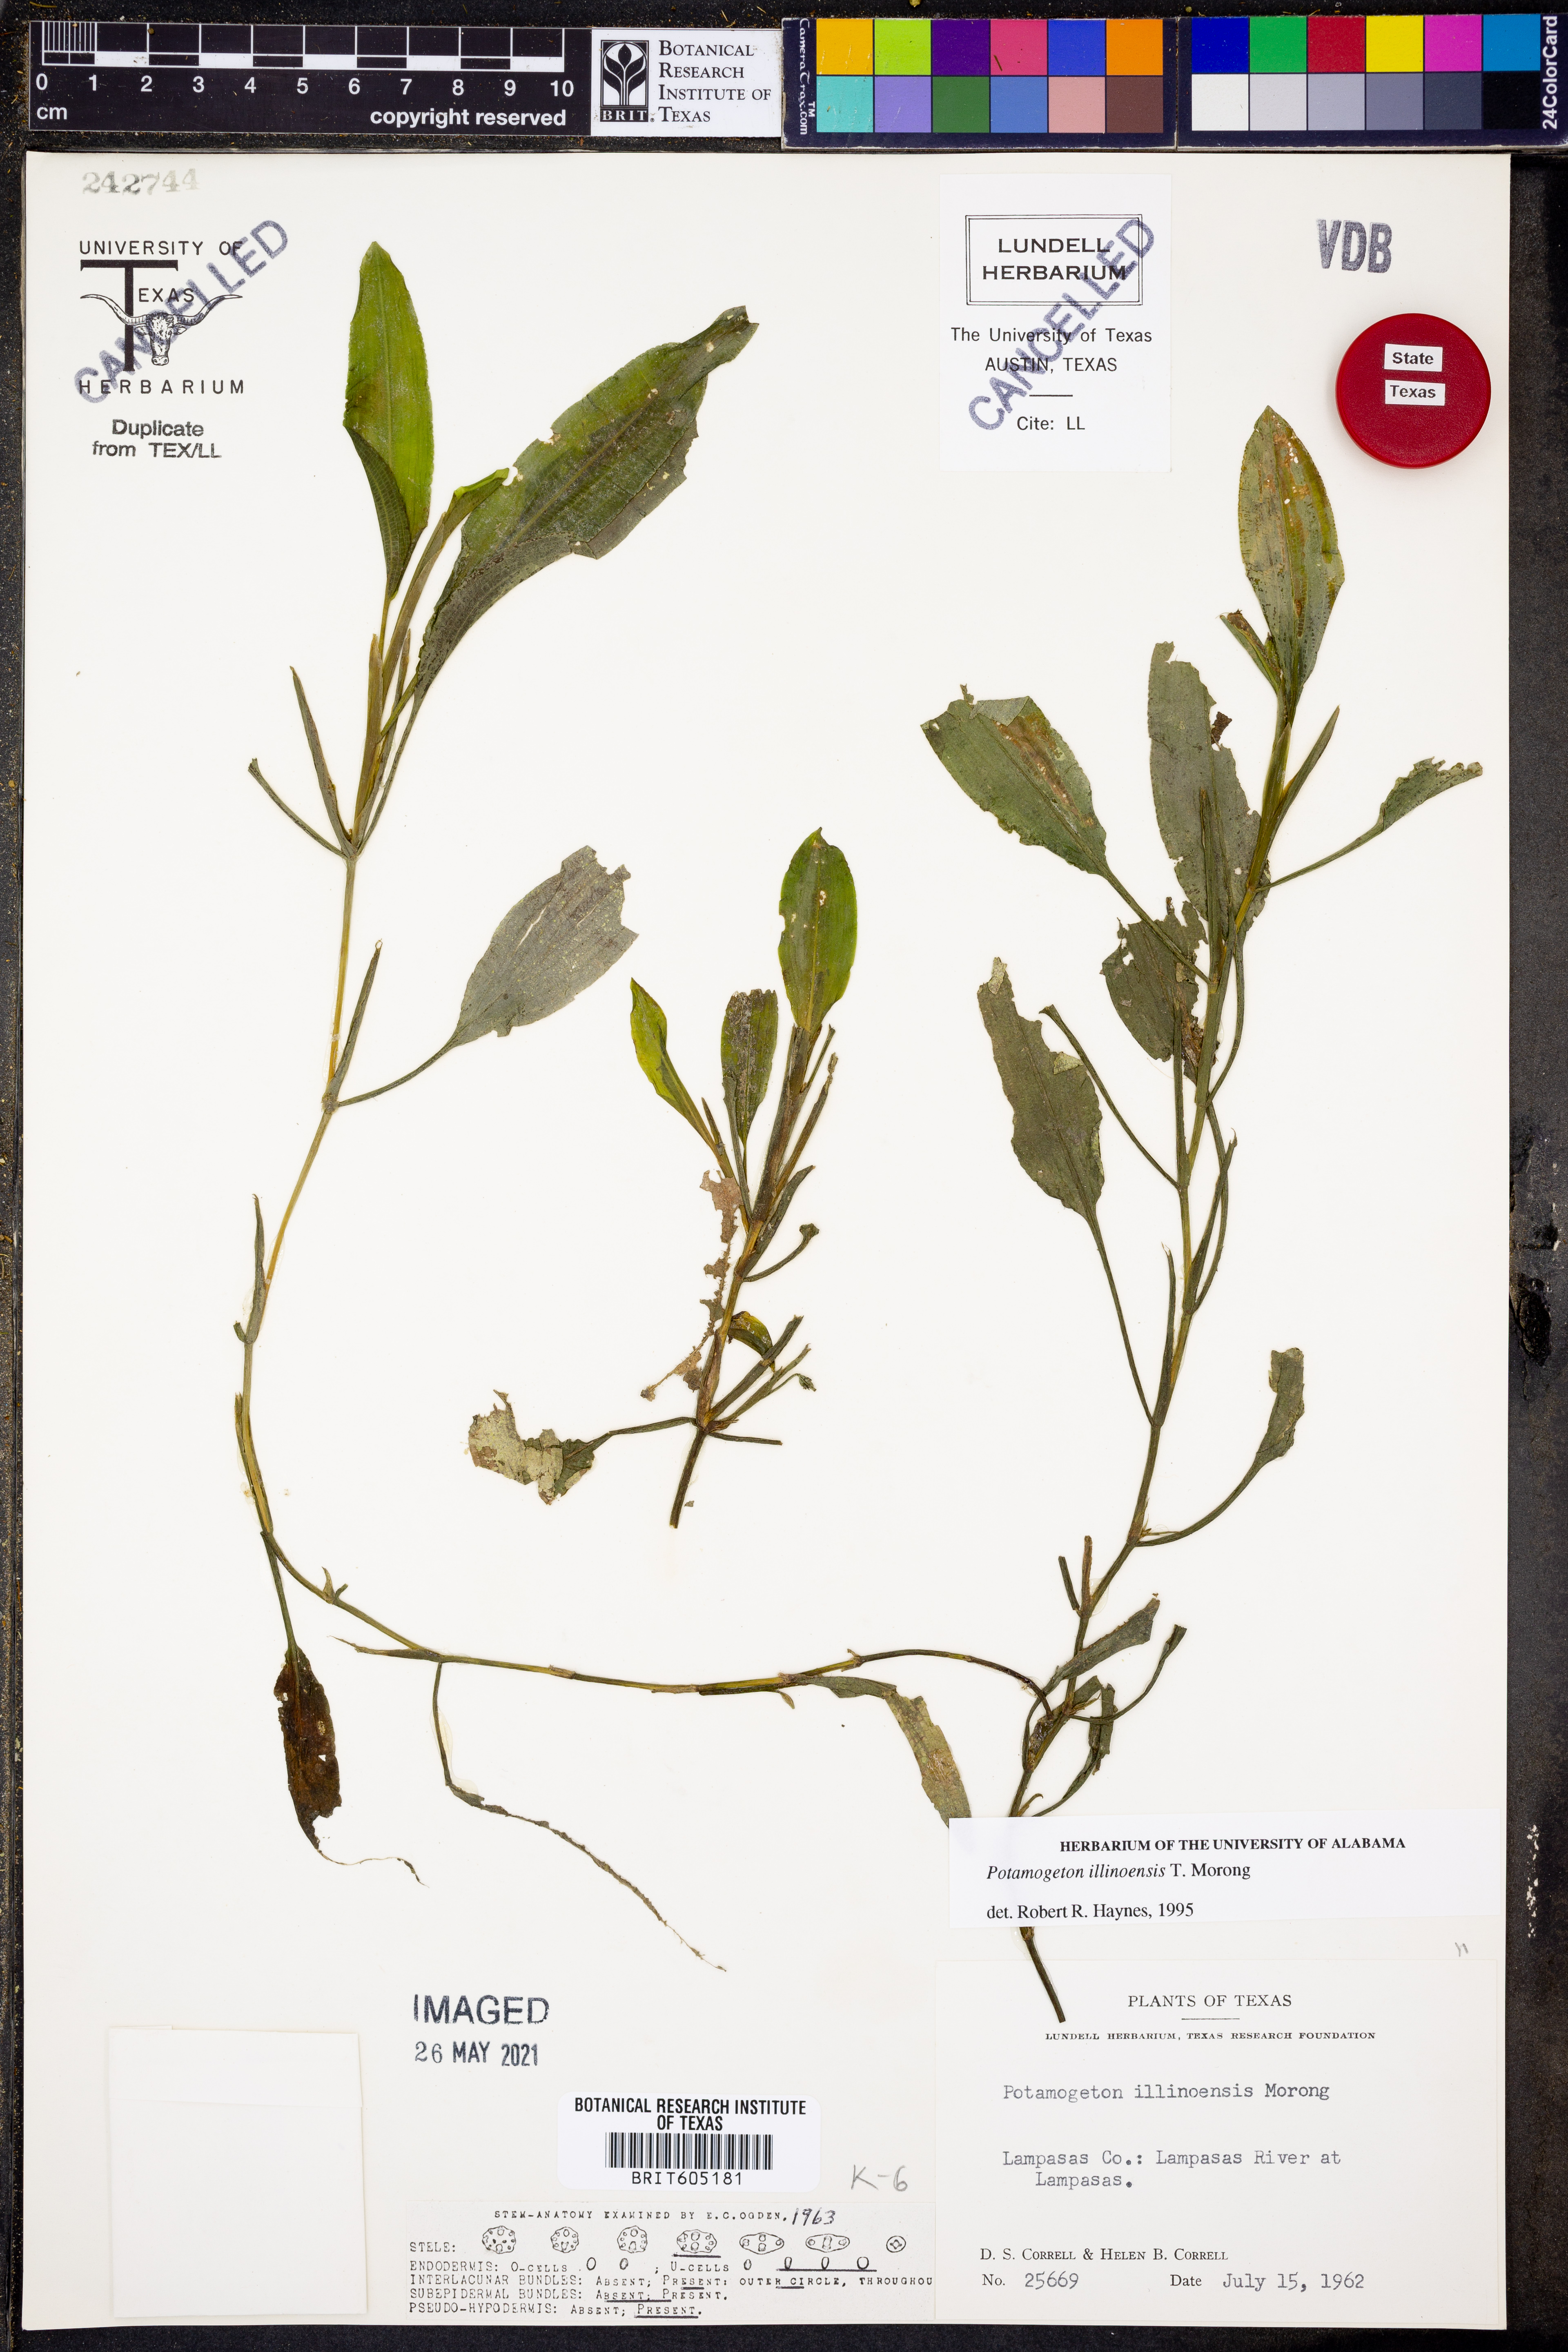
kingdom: Plantae
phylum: Tracheophyta
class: Liliopsida
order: Alismatales
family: Potamogetonaceae
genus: Potamogeton
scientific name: Potamogeton illinoensis
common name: Illinois pondweed
